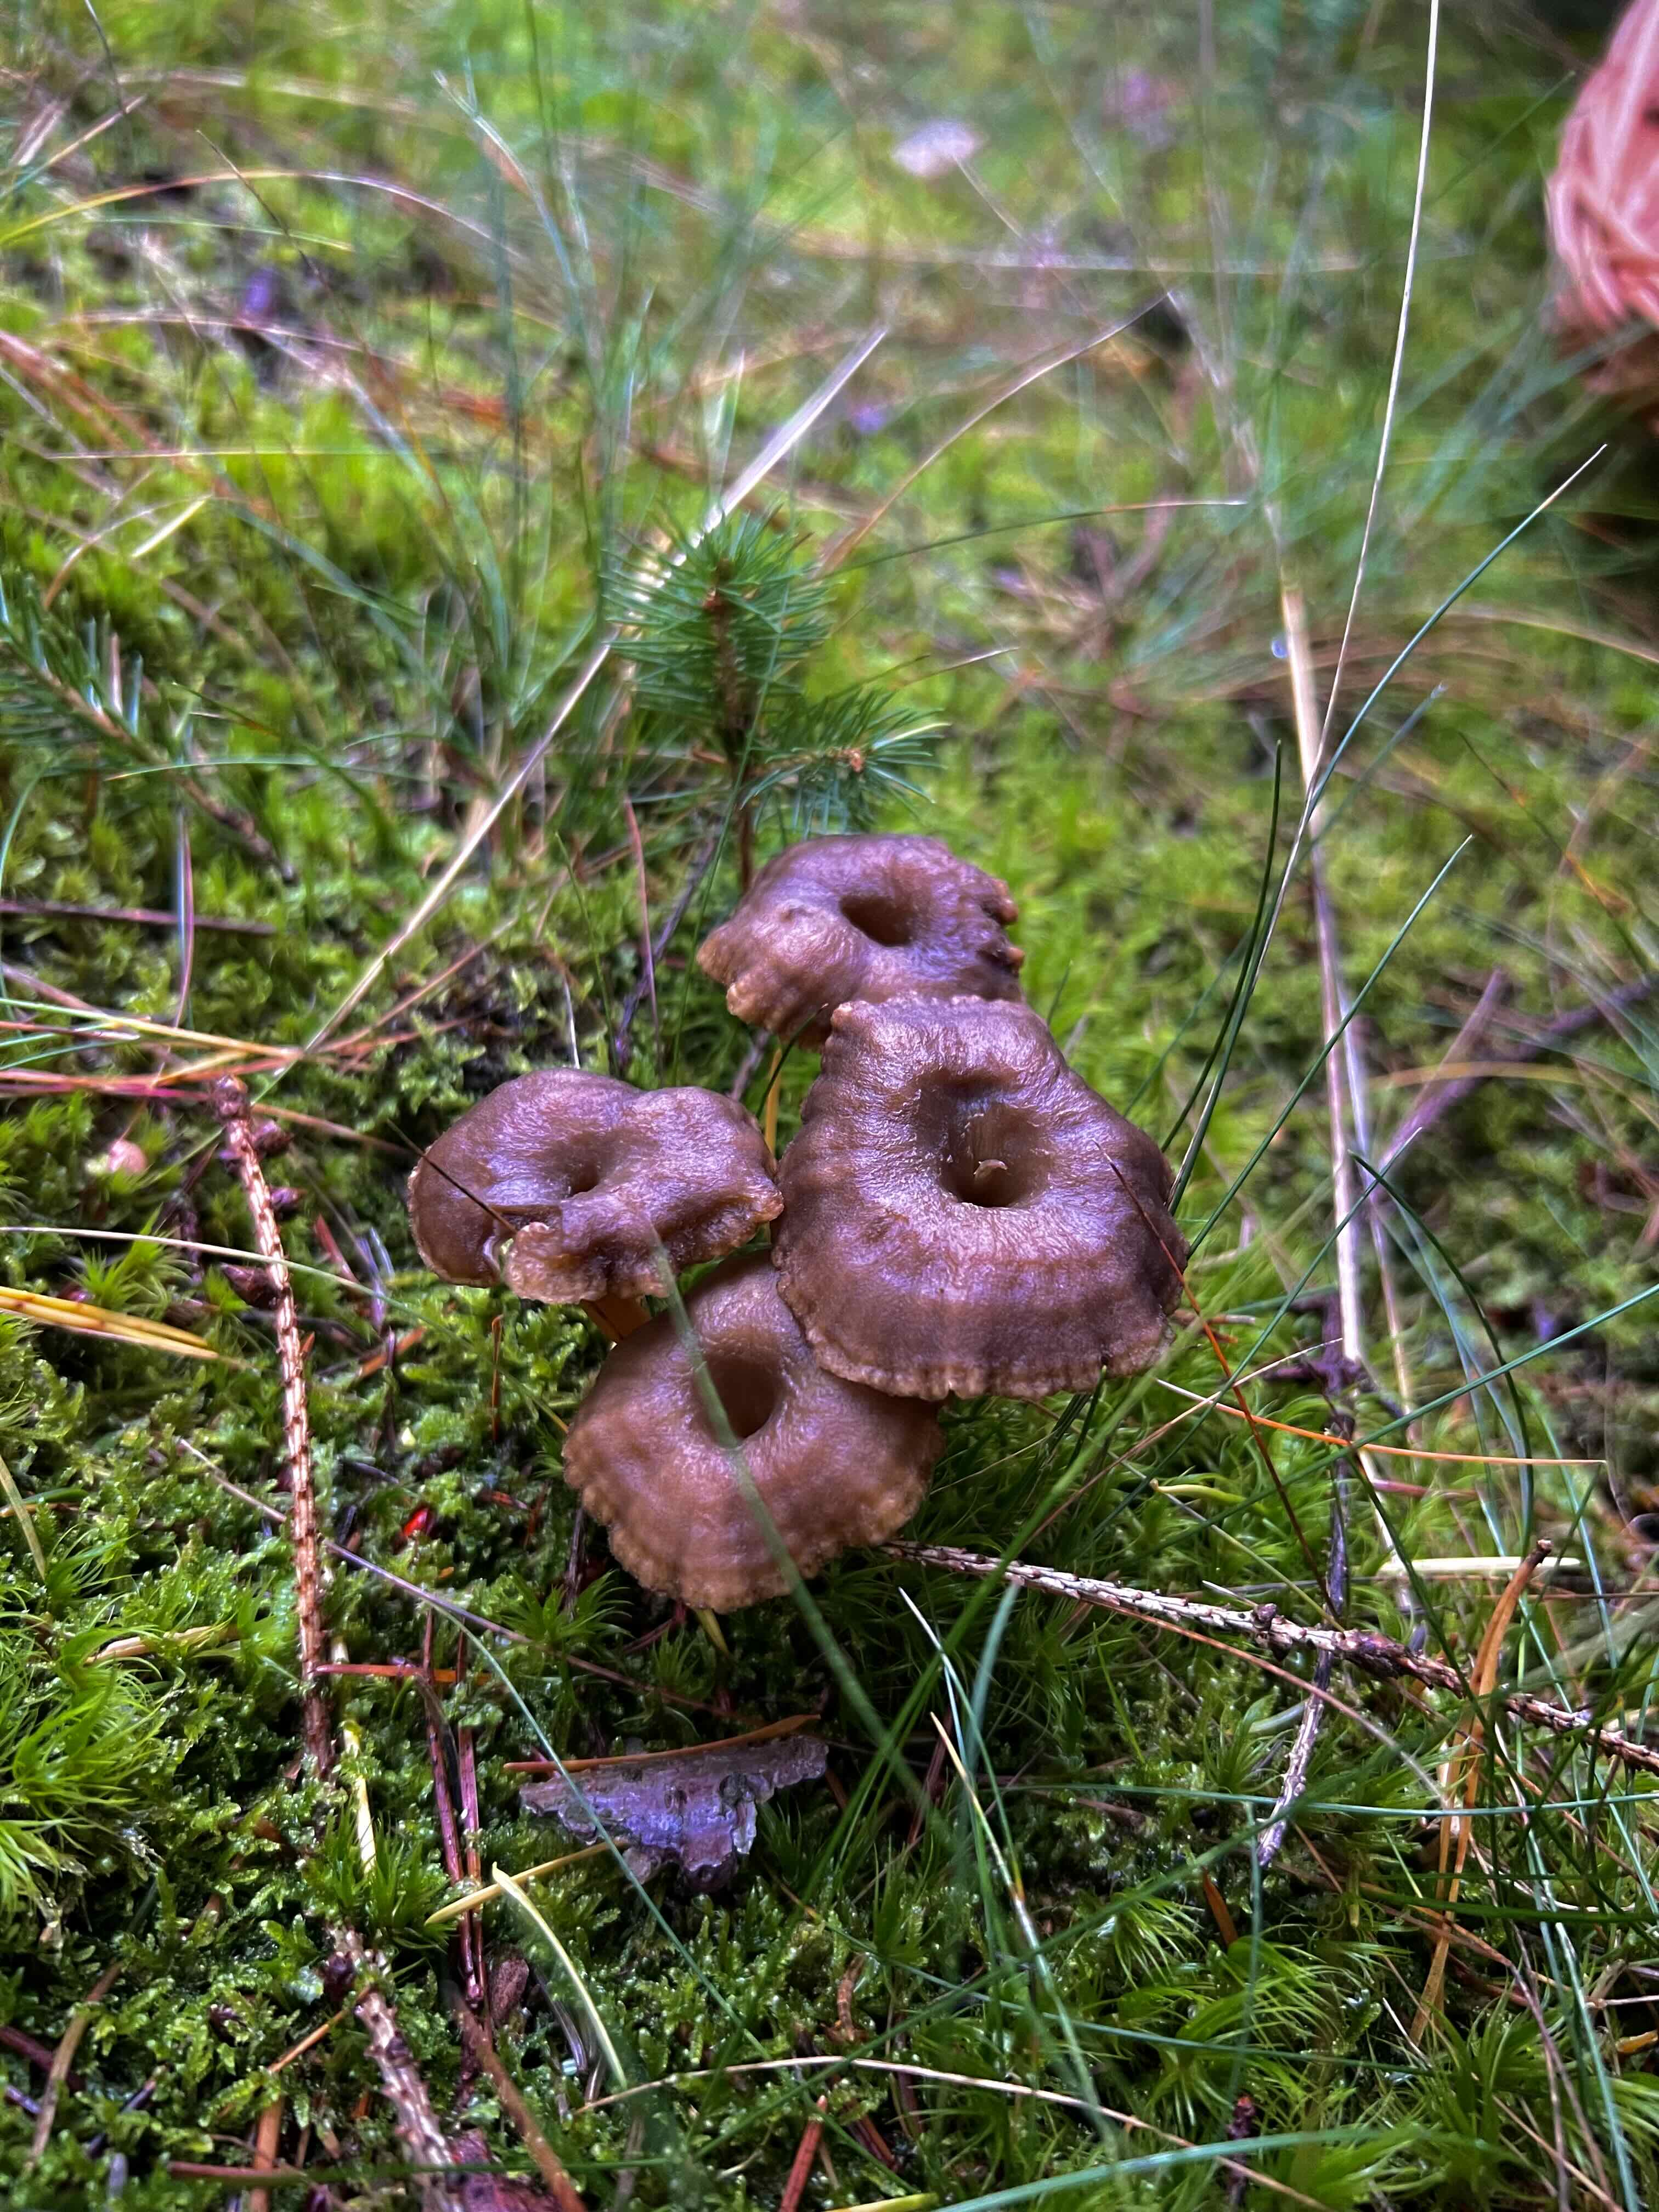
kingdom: Fungi
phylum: Basidiomycota
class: Agaricomycetes
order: Cantharellales
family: Hydnaceae
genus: Craterellus
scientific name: Craterellus tubaeformis
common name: tragt-kantarel
